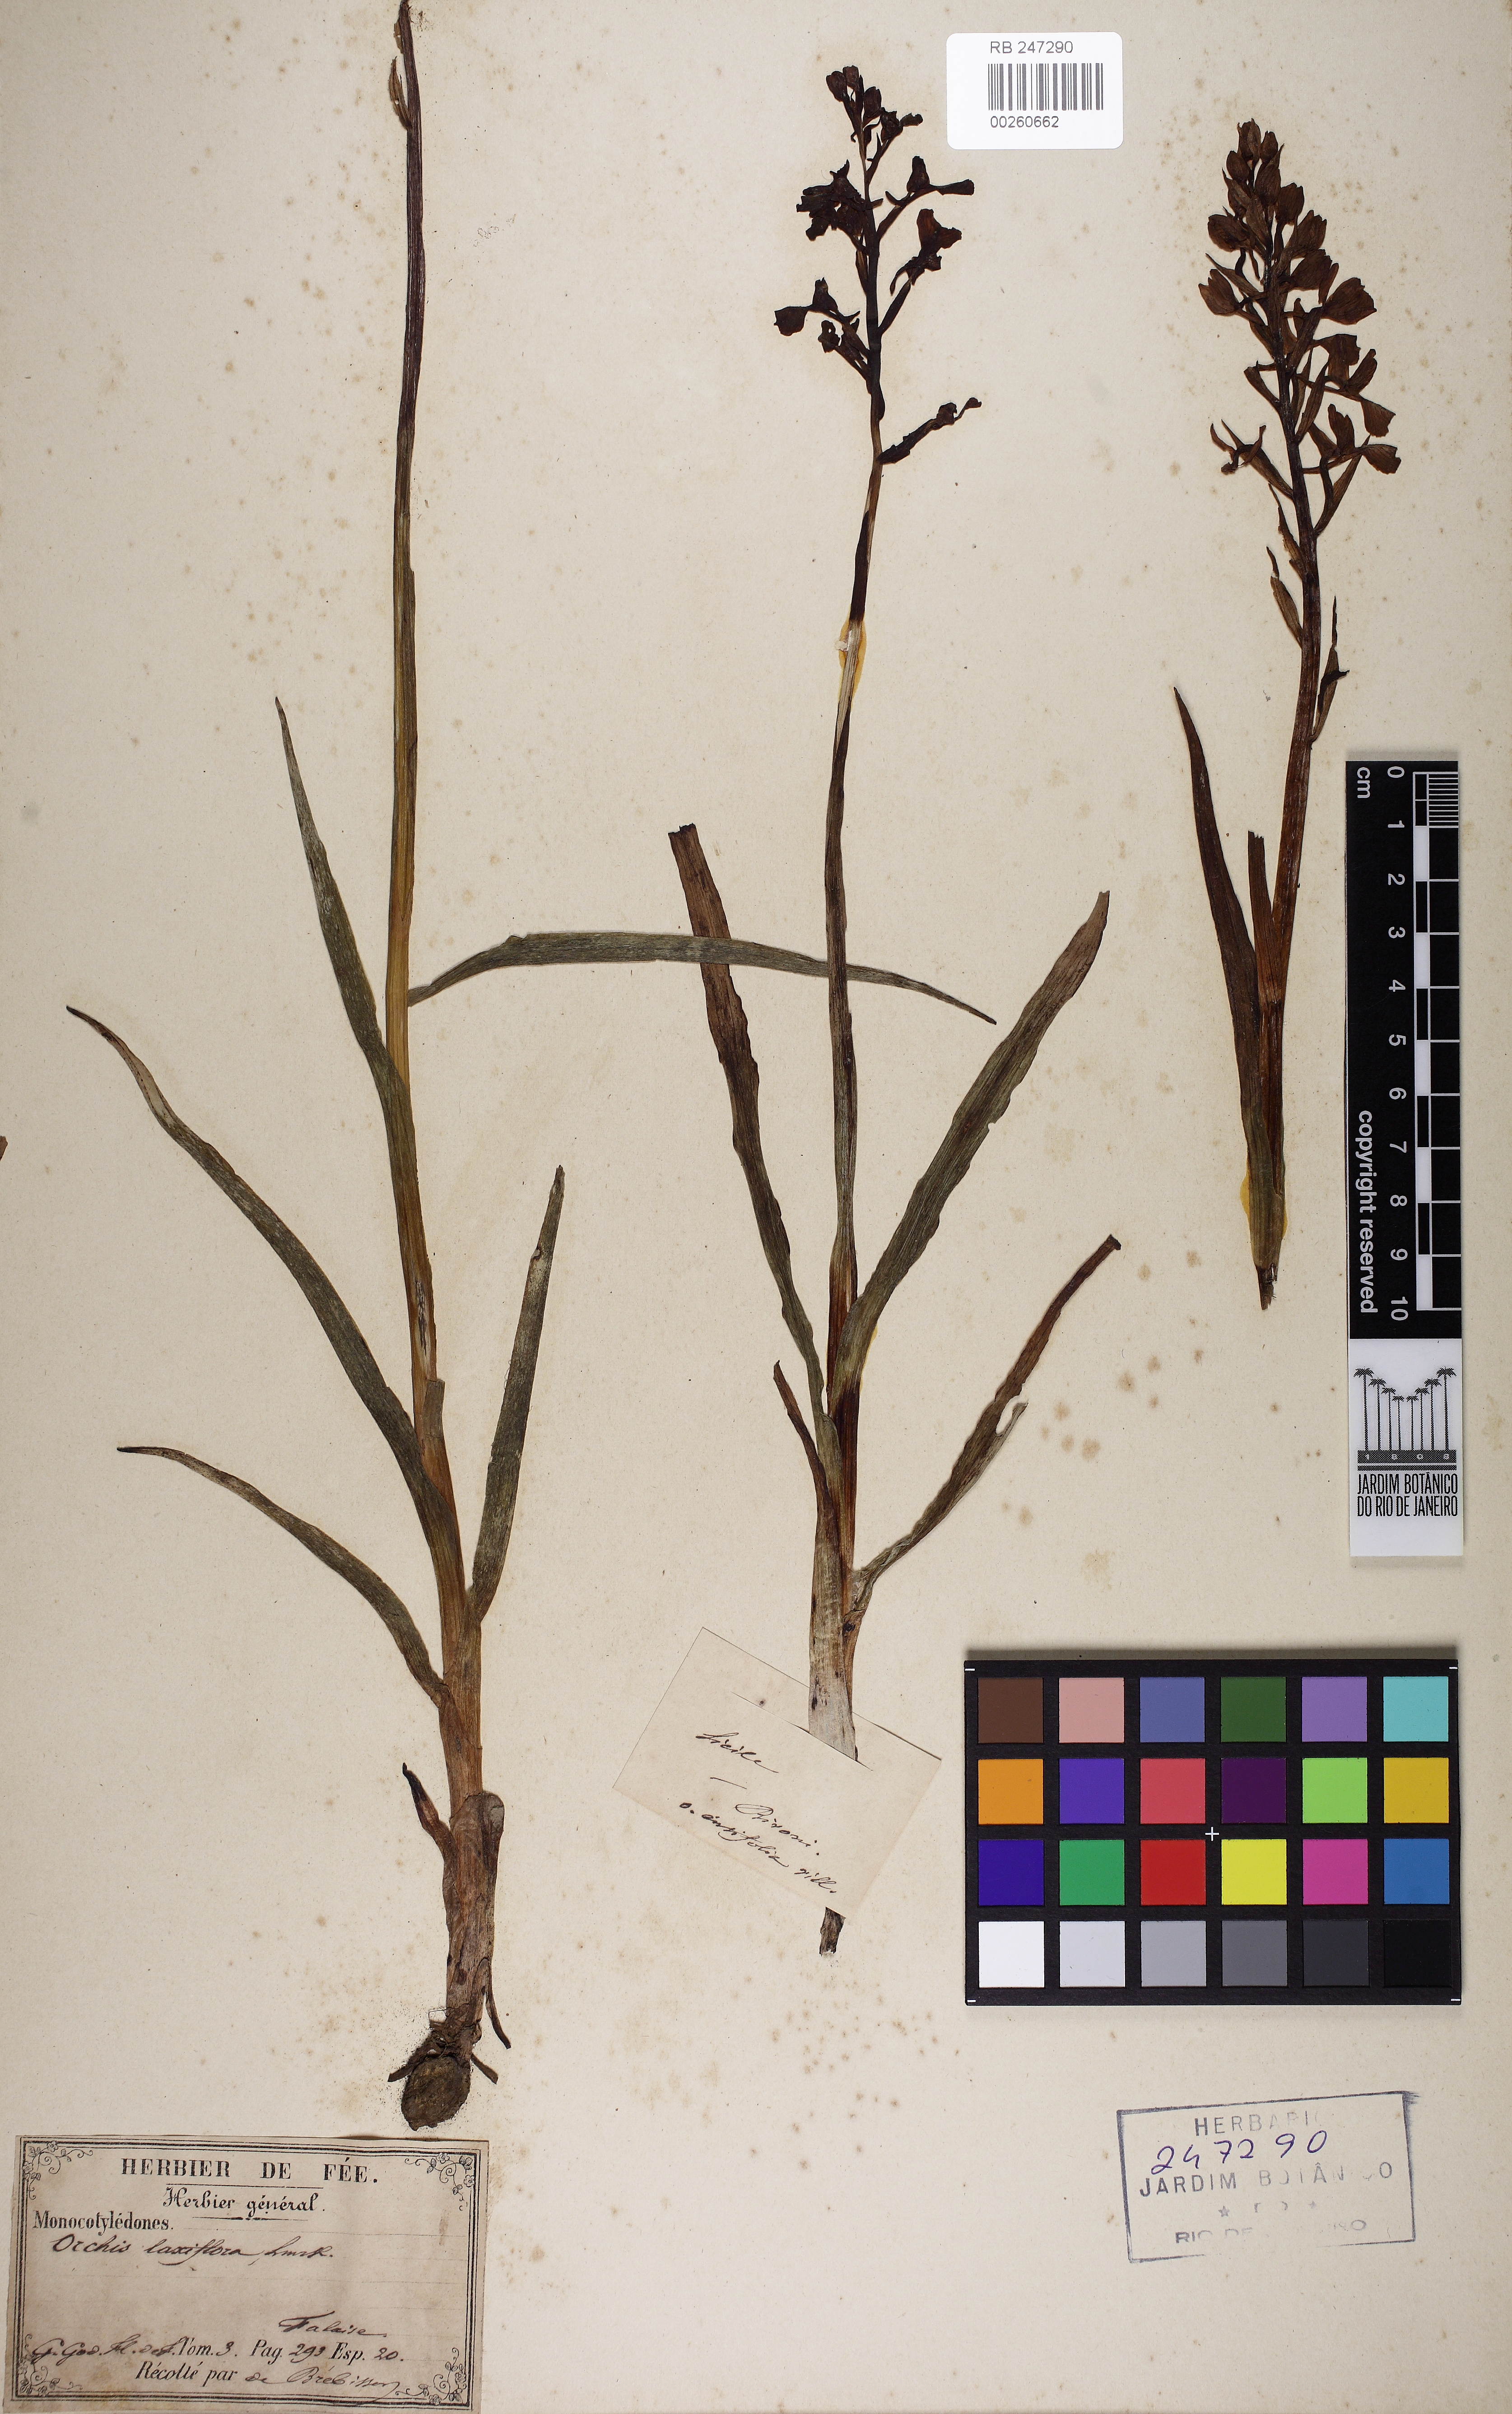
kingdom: Plantae
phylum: Tracheophyta
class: Liliopsida
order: Asparagales
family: Orchidaceae
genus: Anacamptis
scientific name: Anacamptis
